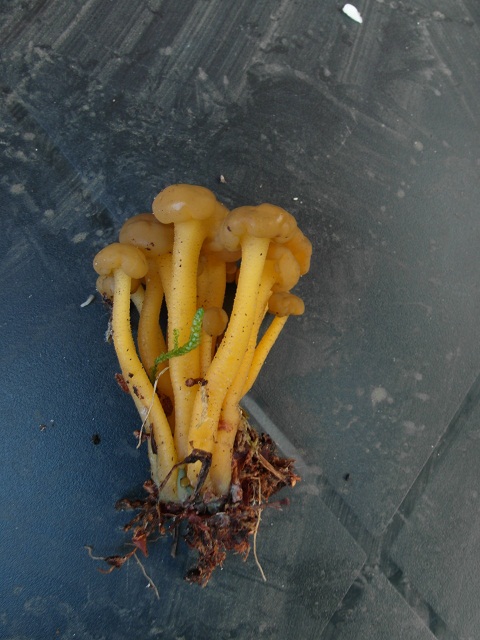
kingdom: Fungi
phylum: Ascomycota
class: Leotiomycetes
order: Leotiales
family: Leotiaceae
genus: Leotia
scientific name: Leotia lubrica
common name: ravsvamp
